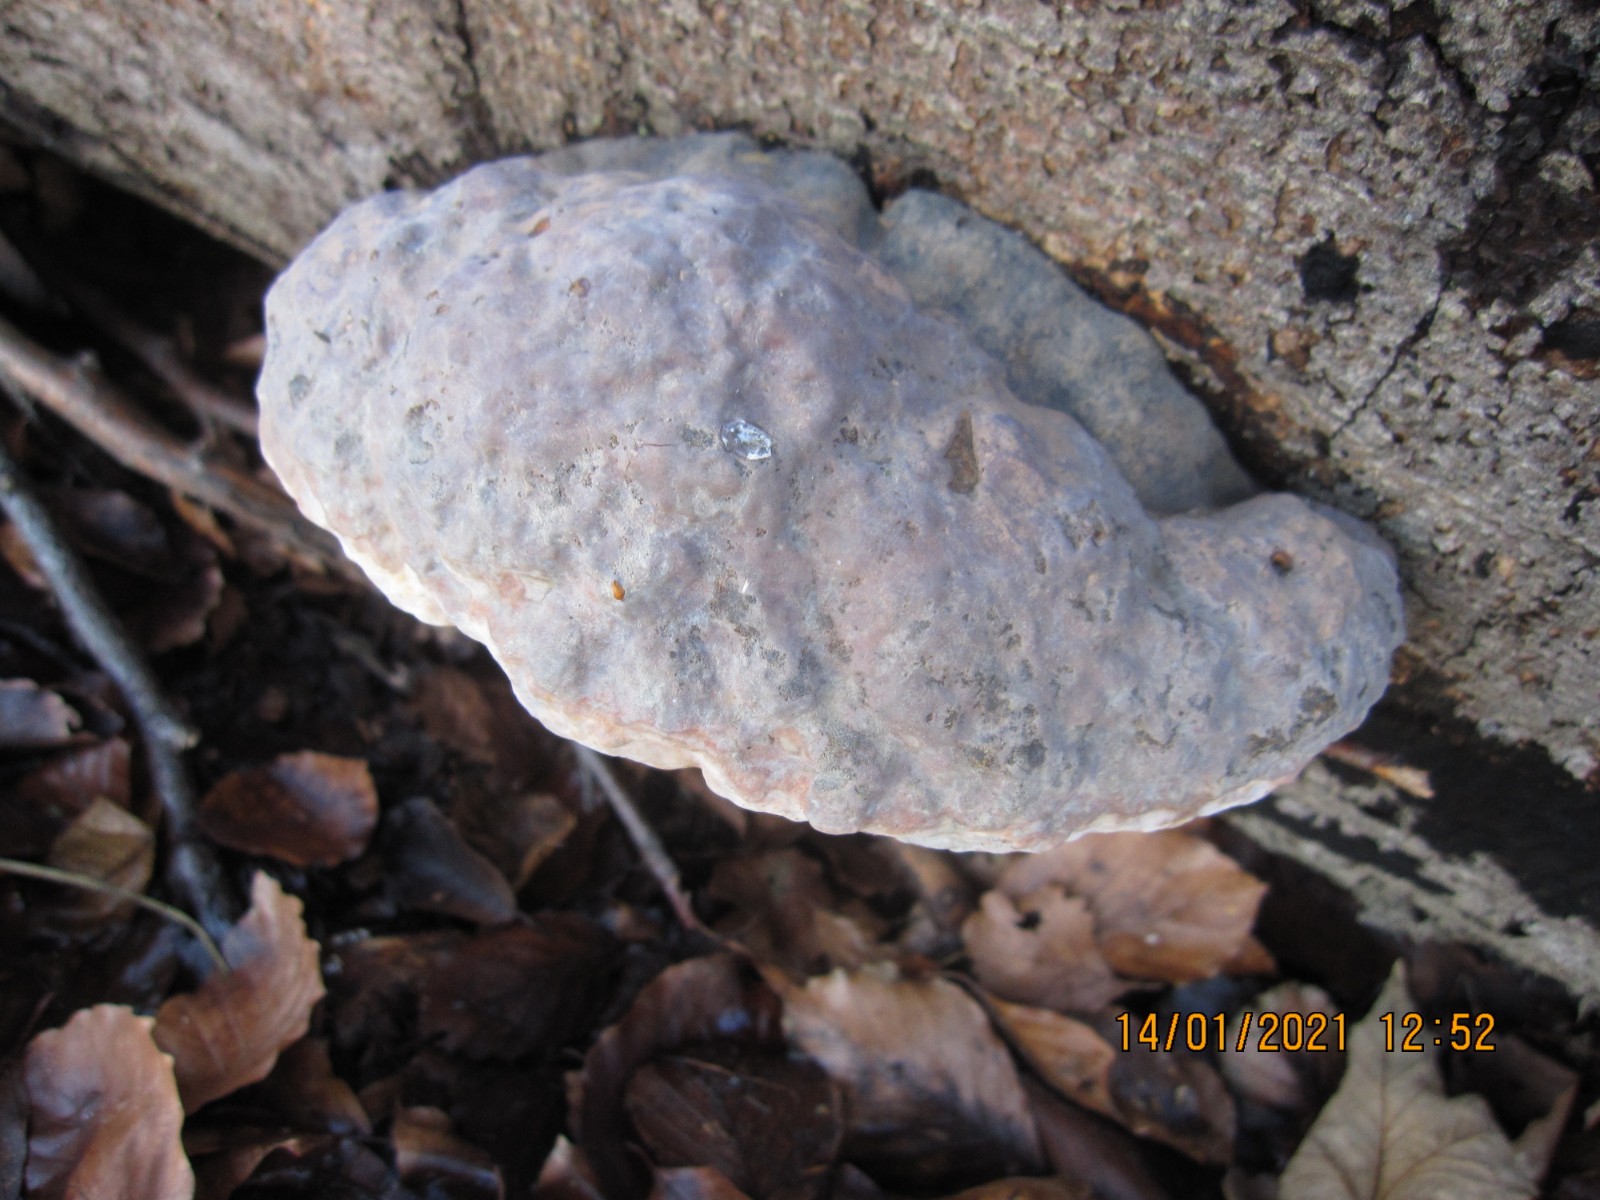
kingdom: Fungi
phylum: Basidiomycota
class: Agaricomycetes
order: Polyporales
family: Polyporaceae
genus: Ganoderma
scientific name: Ganoderma pfeifferi
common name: kobberrød lakporesvamp
